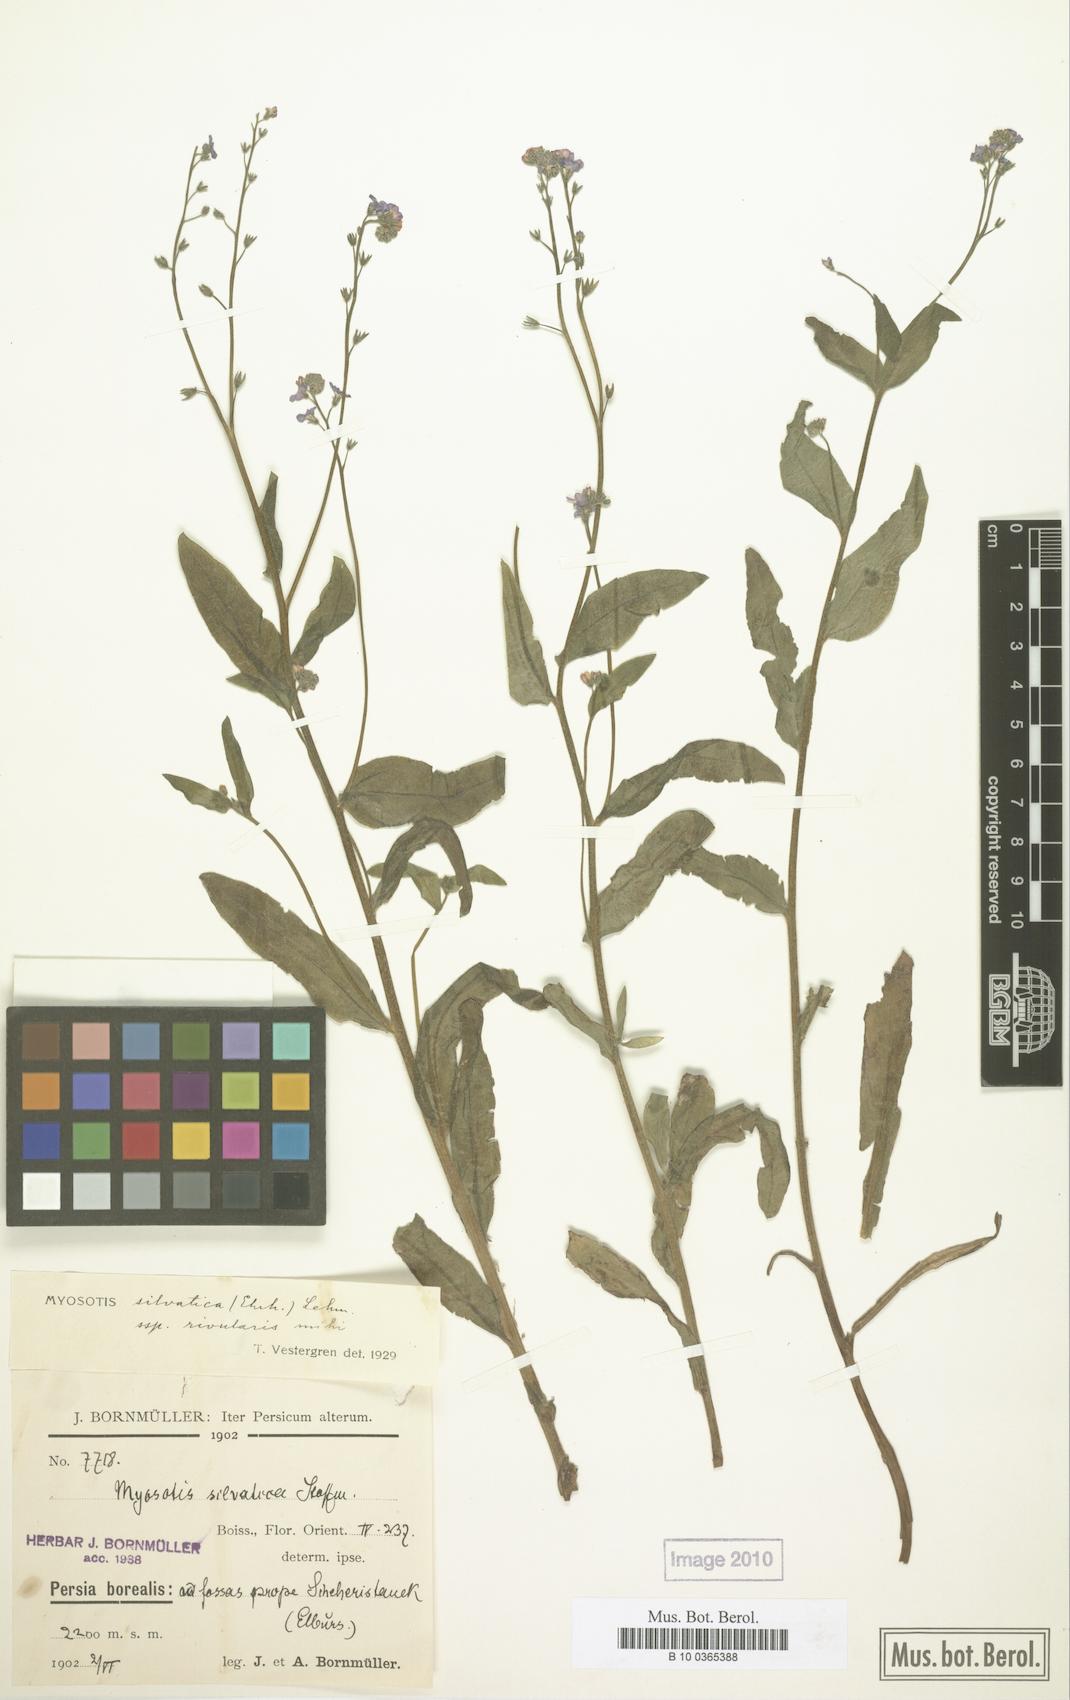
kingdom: Plantae
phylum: Tracheophyta
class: Magnoliopsida
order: Boraginales
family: Boraginaceae
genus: Myosotis
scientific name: Myosotis rivularis
